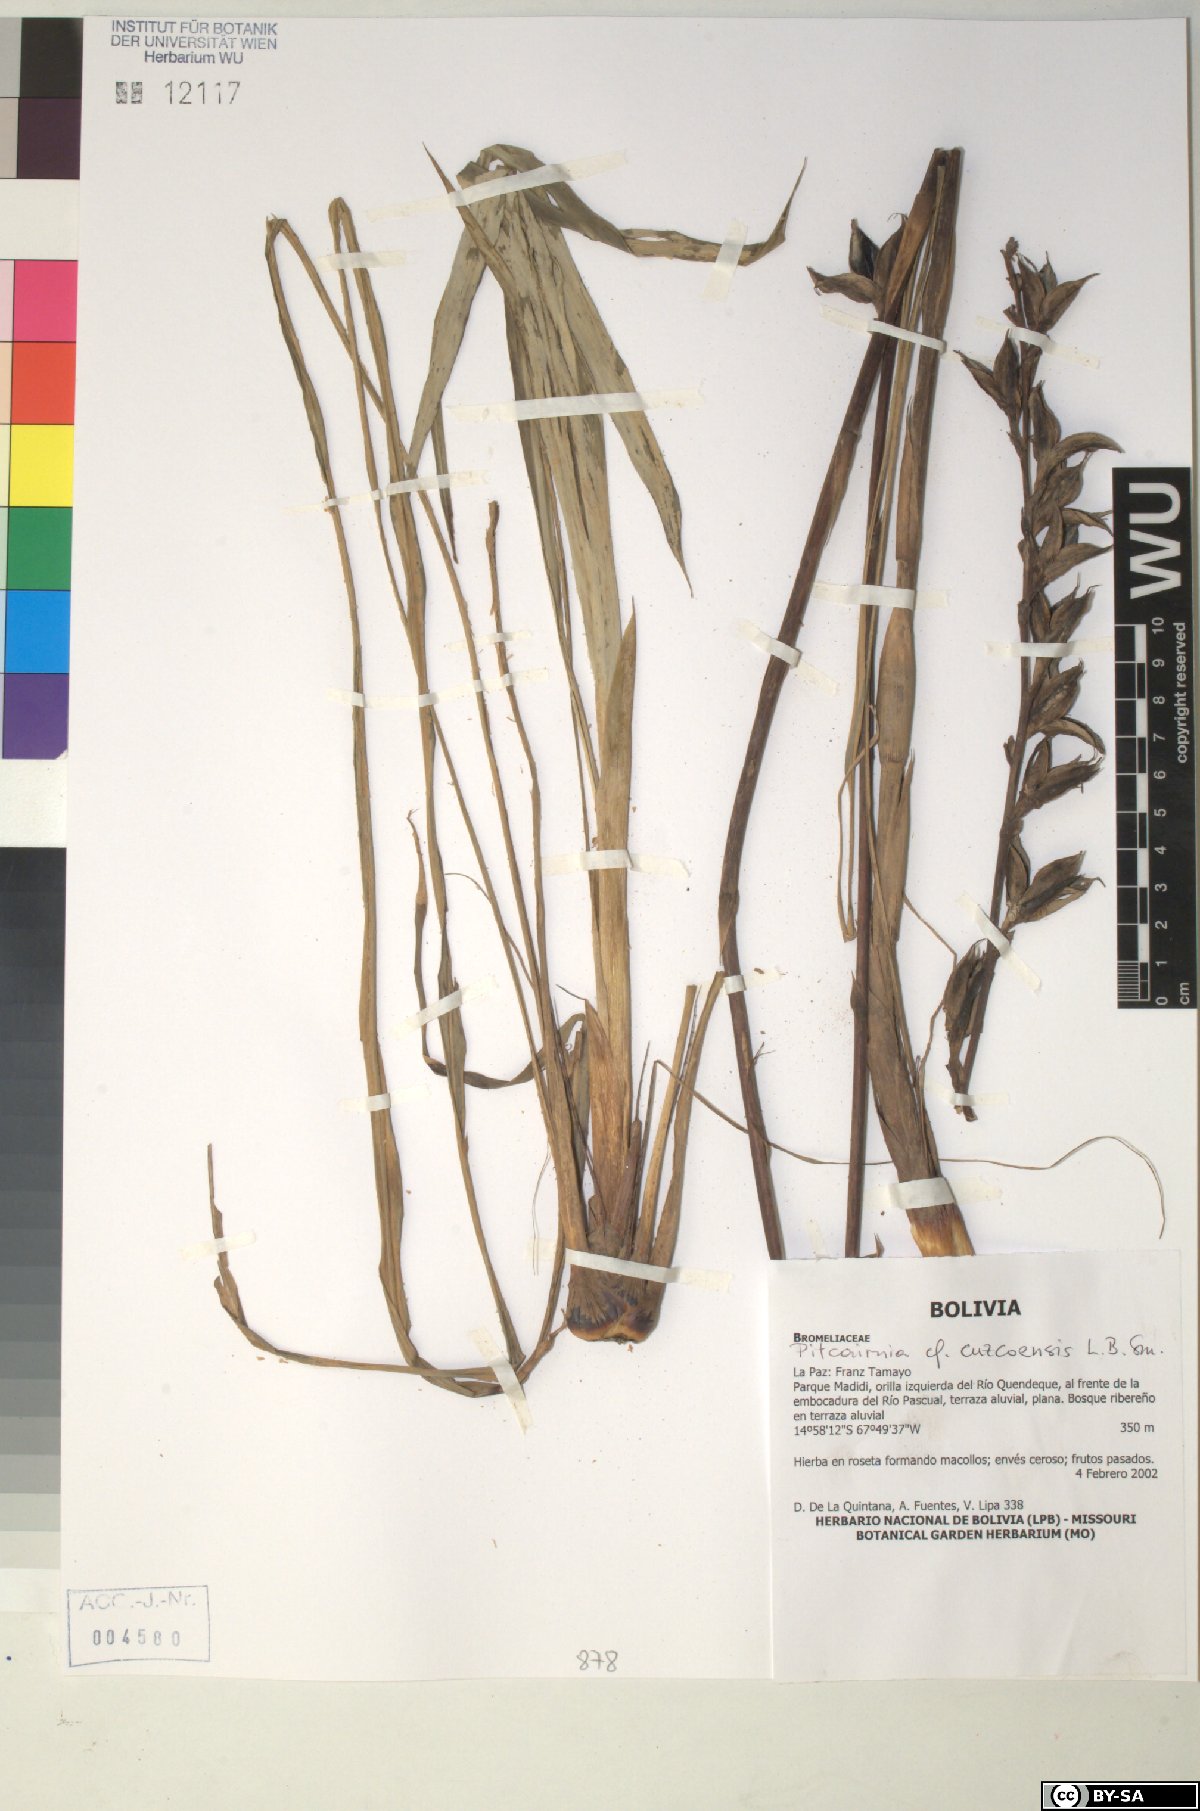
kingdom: Plantae
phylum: Tracheophyta
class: Liliopsida
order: Poales
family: Bromeliaceae
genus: Pitcairnia
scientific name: Pitcairnia cuzcoensis
